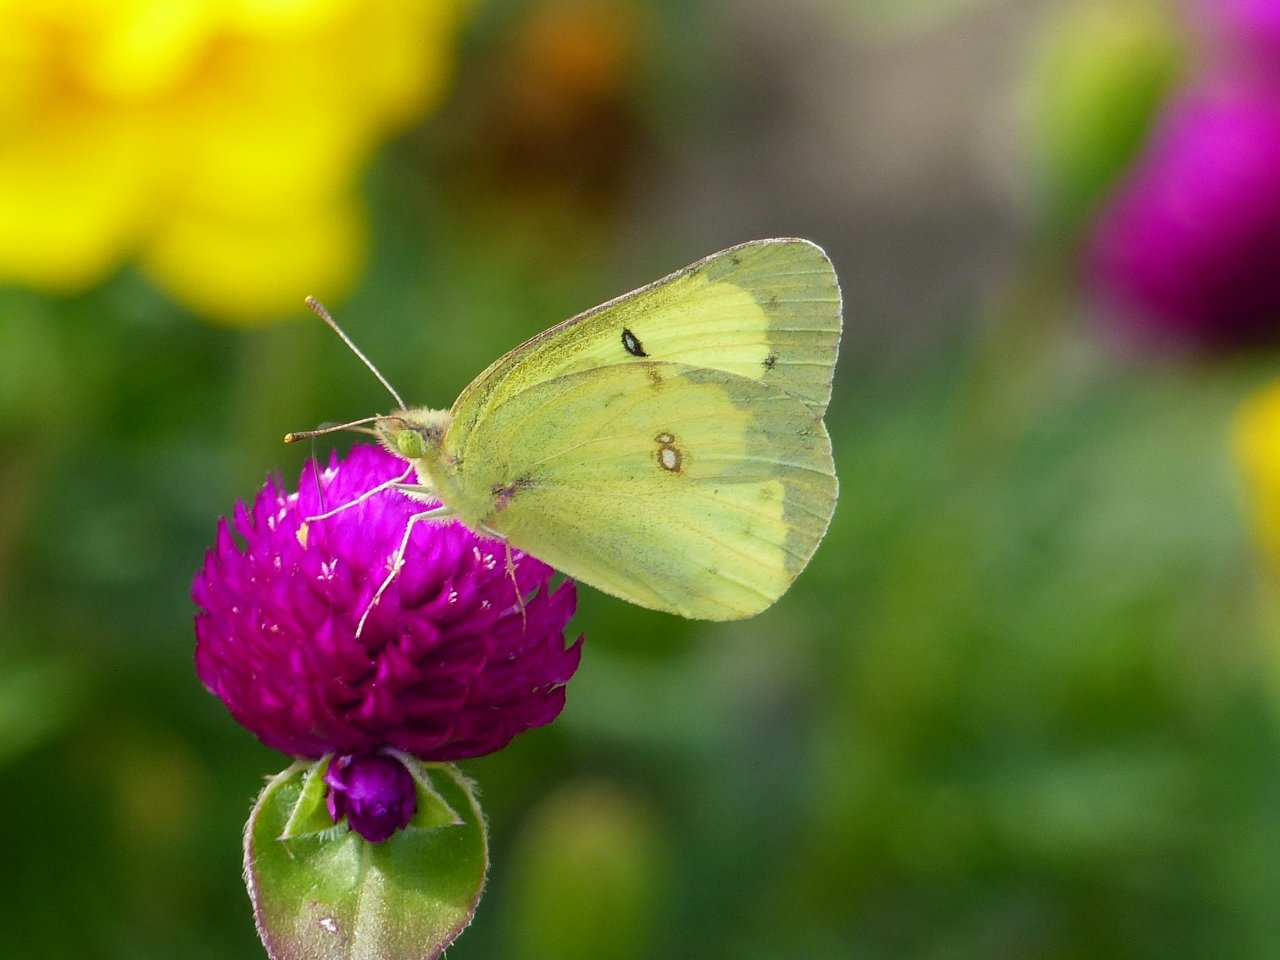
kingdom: Animalia
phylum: Arthropoda
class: Insecta
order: Lepidoptera
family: Pieridae
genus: Colias
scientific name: Colias philodice
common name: Clouded Sulphur
